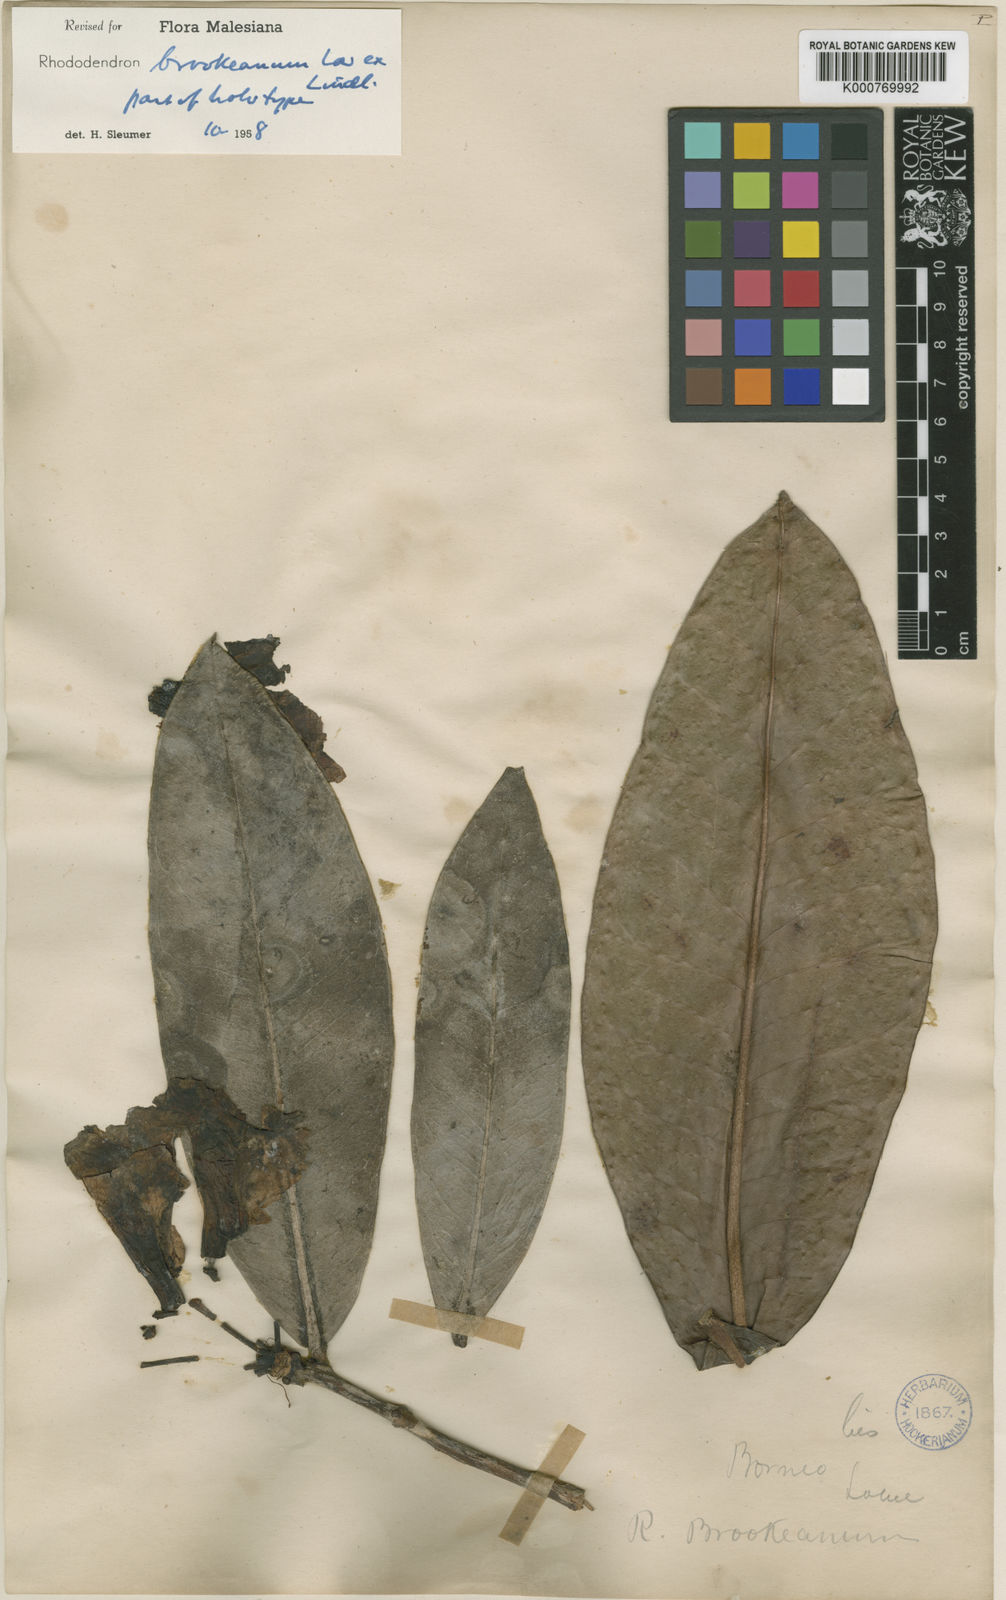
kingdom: Plantae
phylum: Tracheophyta
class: Magnoliopsida
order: Ericales
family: Ericaceae
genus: Rhododendron
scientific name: Rhododendron javanicum
